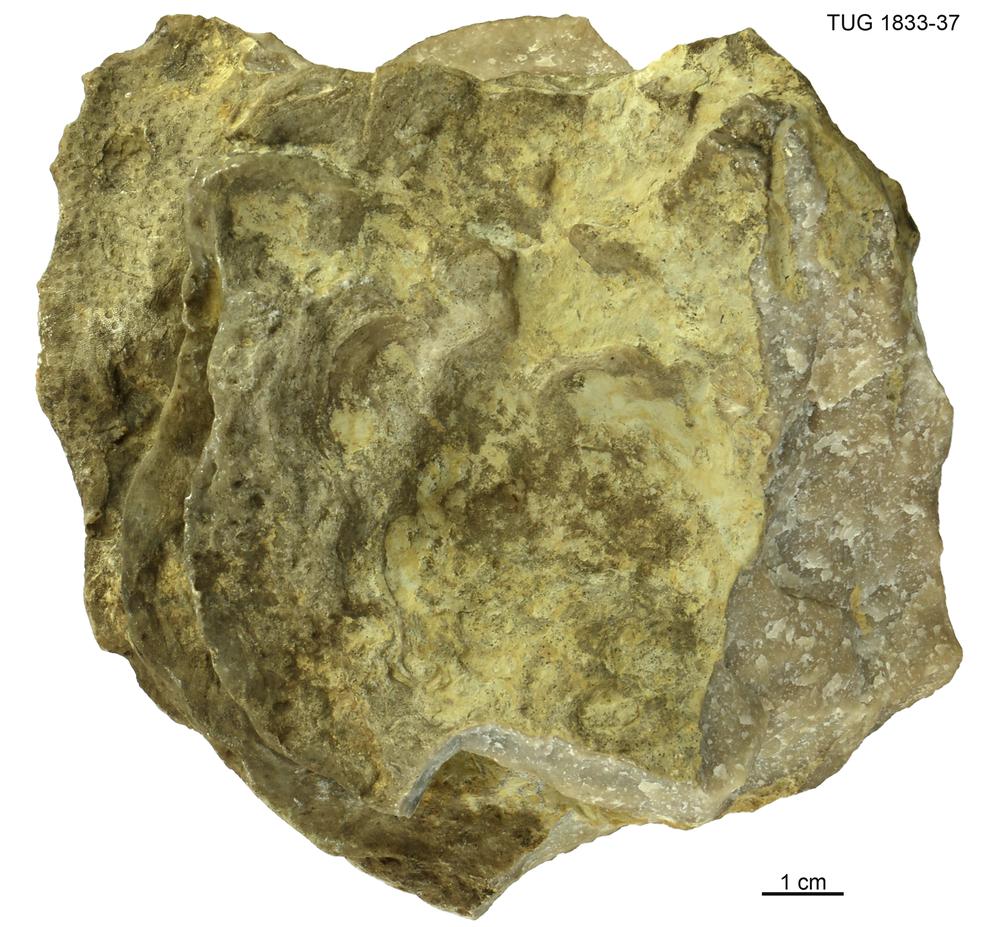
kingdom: Animalia
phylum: Porifera
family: Stromatoporidae
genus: Stromatopora
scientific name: Stromatopora
